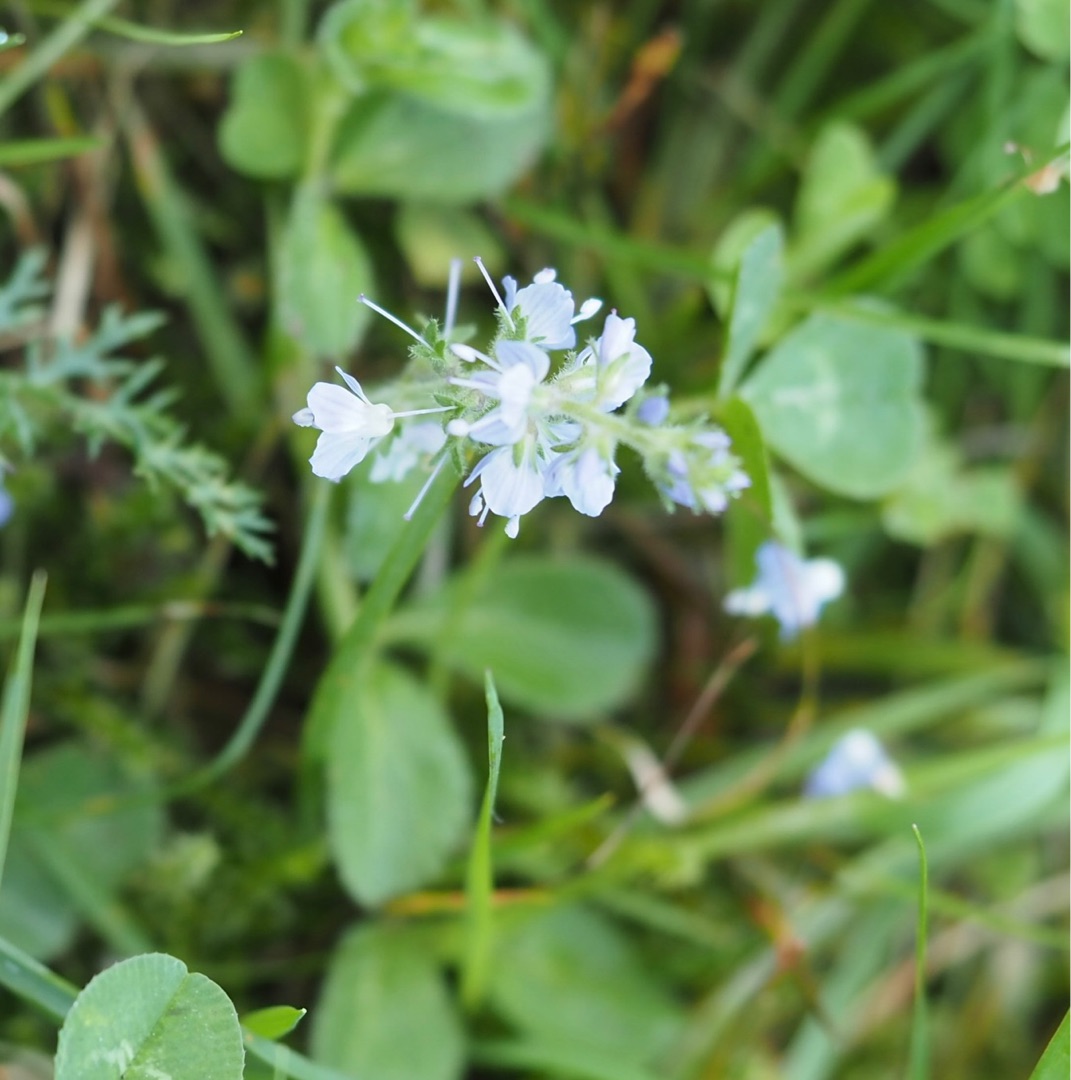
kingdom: Plantae
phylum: Tracheophyta
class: Magnoliopsida
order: Lamiales
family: Plantaginaceae
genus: Veronica
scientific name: Veronica officinalis
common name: Læge-ærenpris
